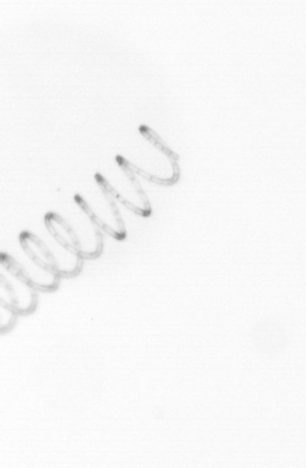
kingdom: Chromista
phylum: Ochrophyta
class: Bacillariophyceae
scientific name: Bacillariophyceae
